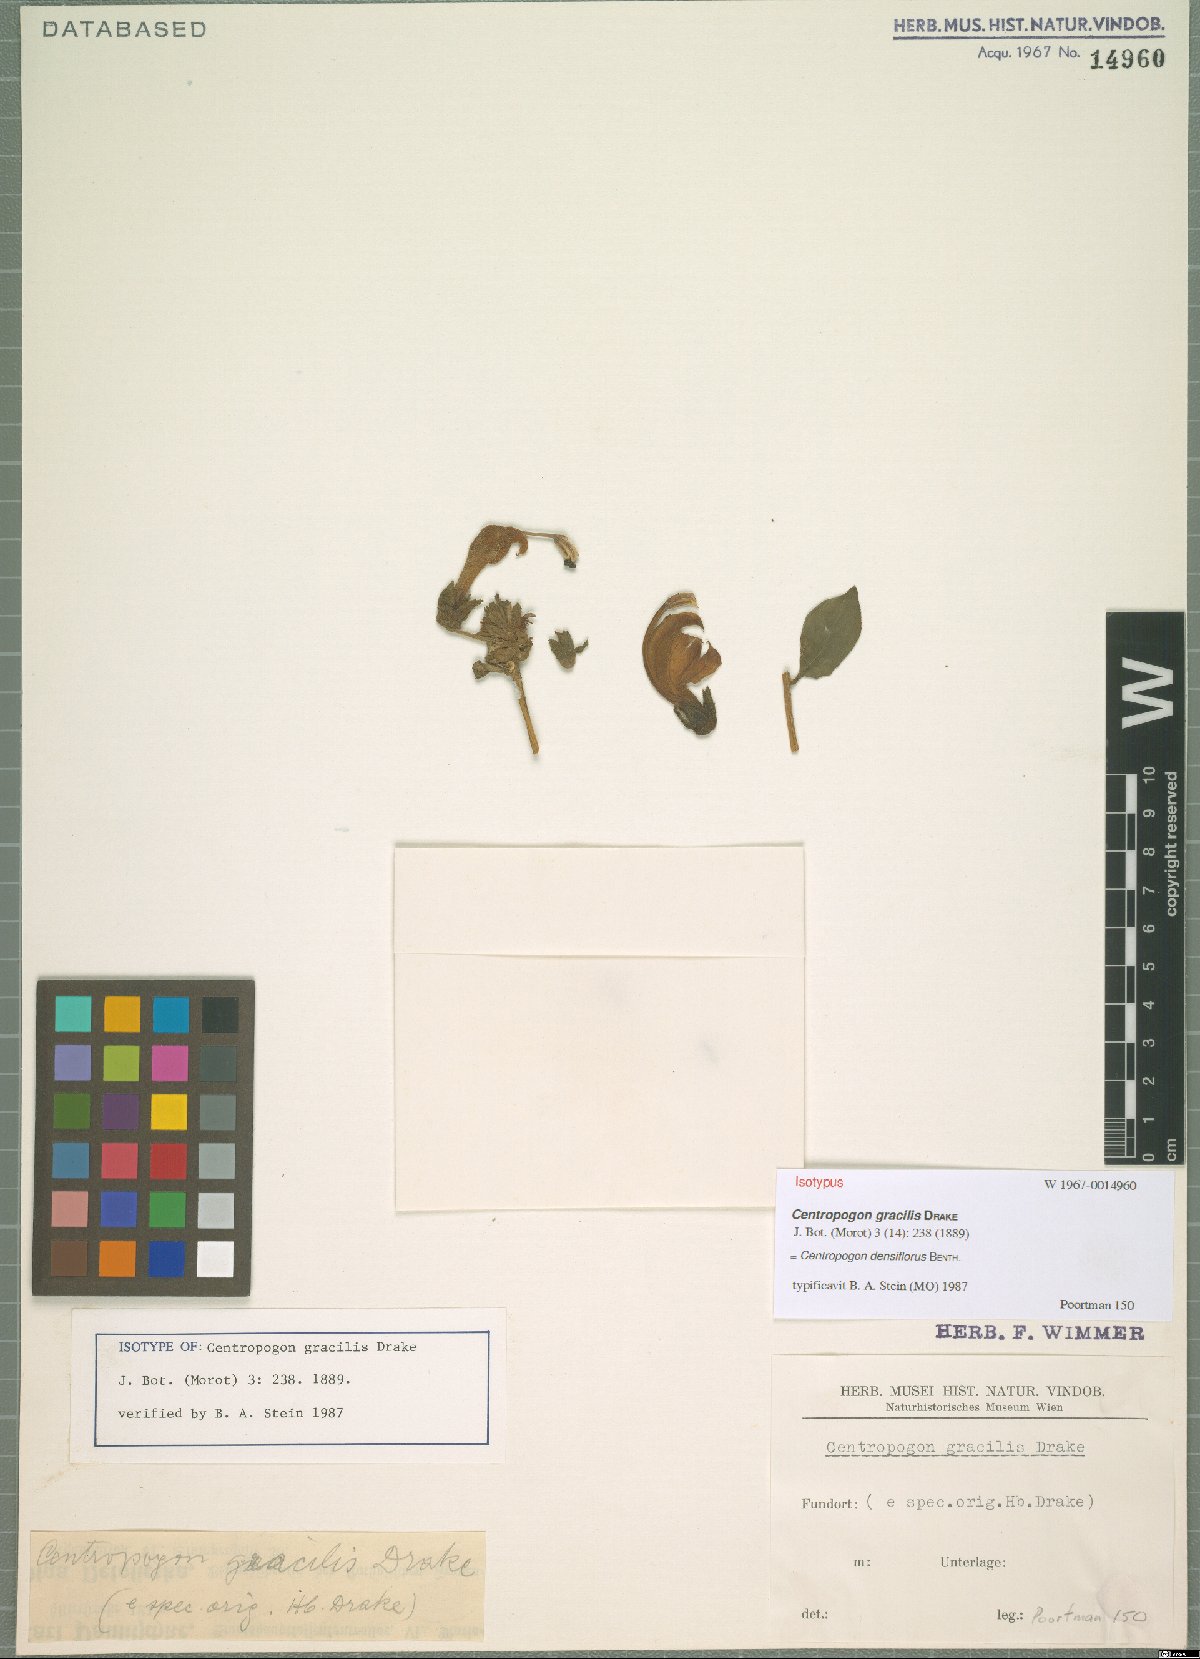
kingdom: Plantae
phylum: Tracheophyta
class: Magnoliopsida
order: Asterales
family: Campanulaceae
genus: Centropogon
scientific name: Centropogon densiflorus
